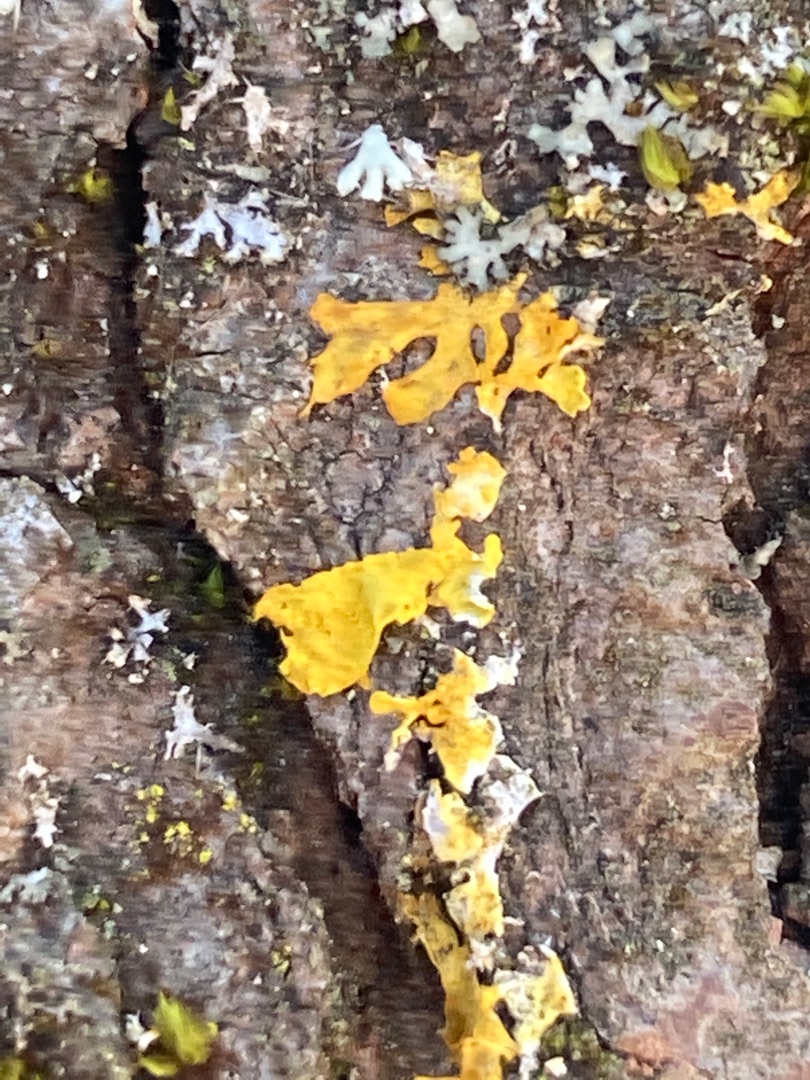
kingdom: Fungi
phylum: Ascomycota
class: Lecanoromycetes
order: Teloschistales
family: Teloschistaceae
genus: Xanthoria
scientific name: Xanthoria parietina
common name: Almindelig væggelav
